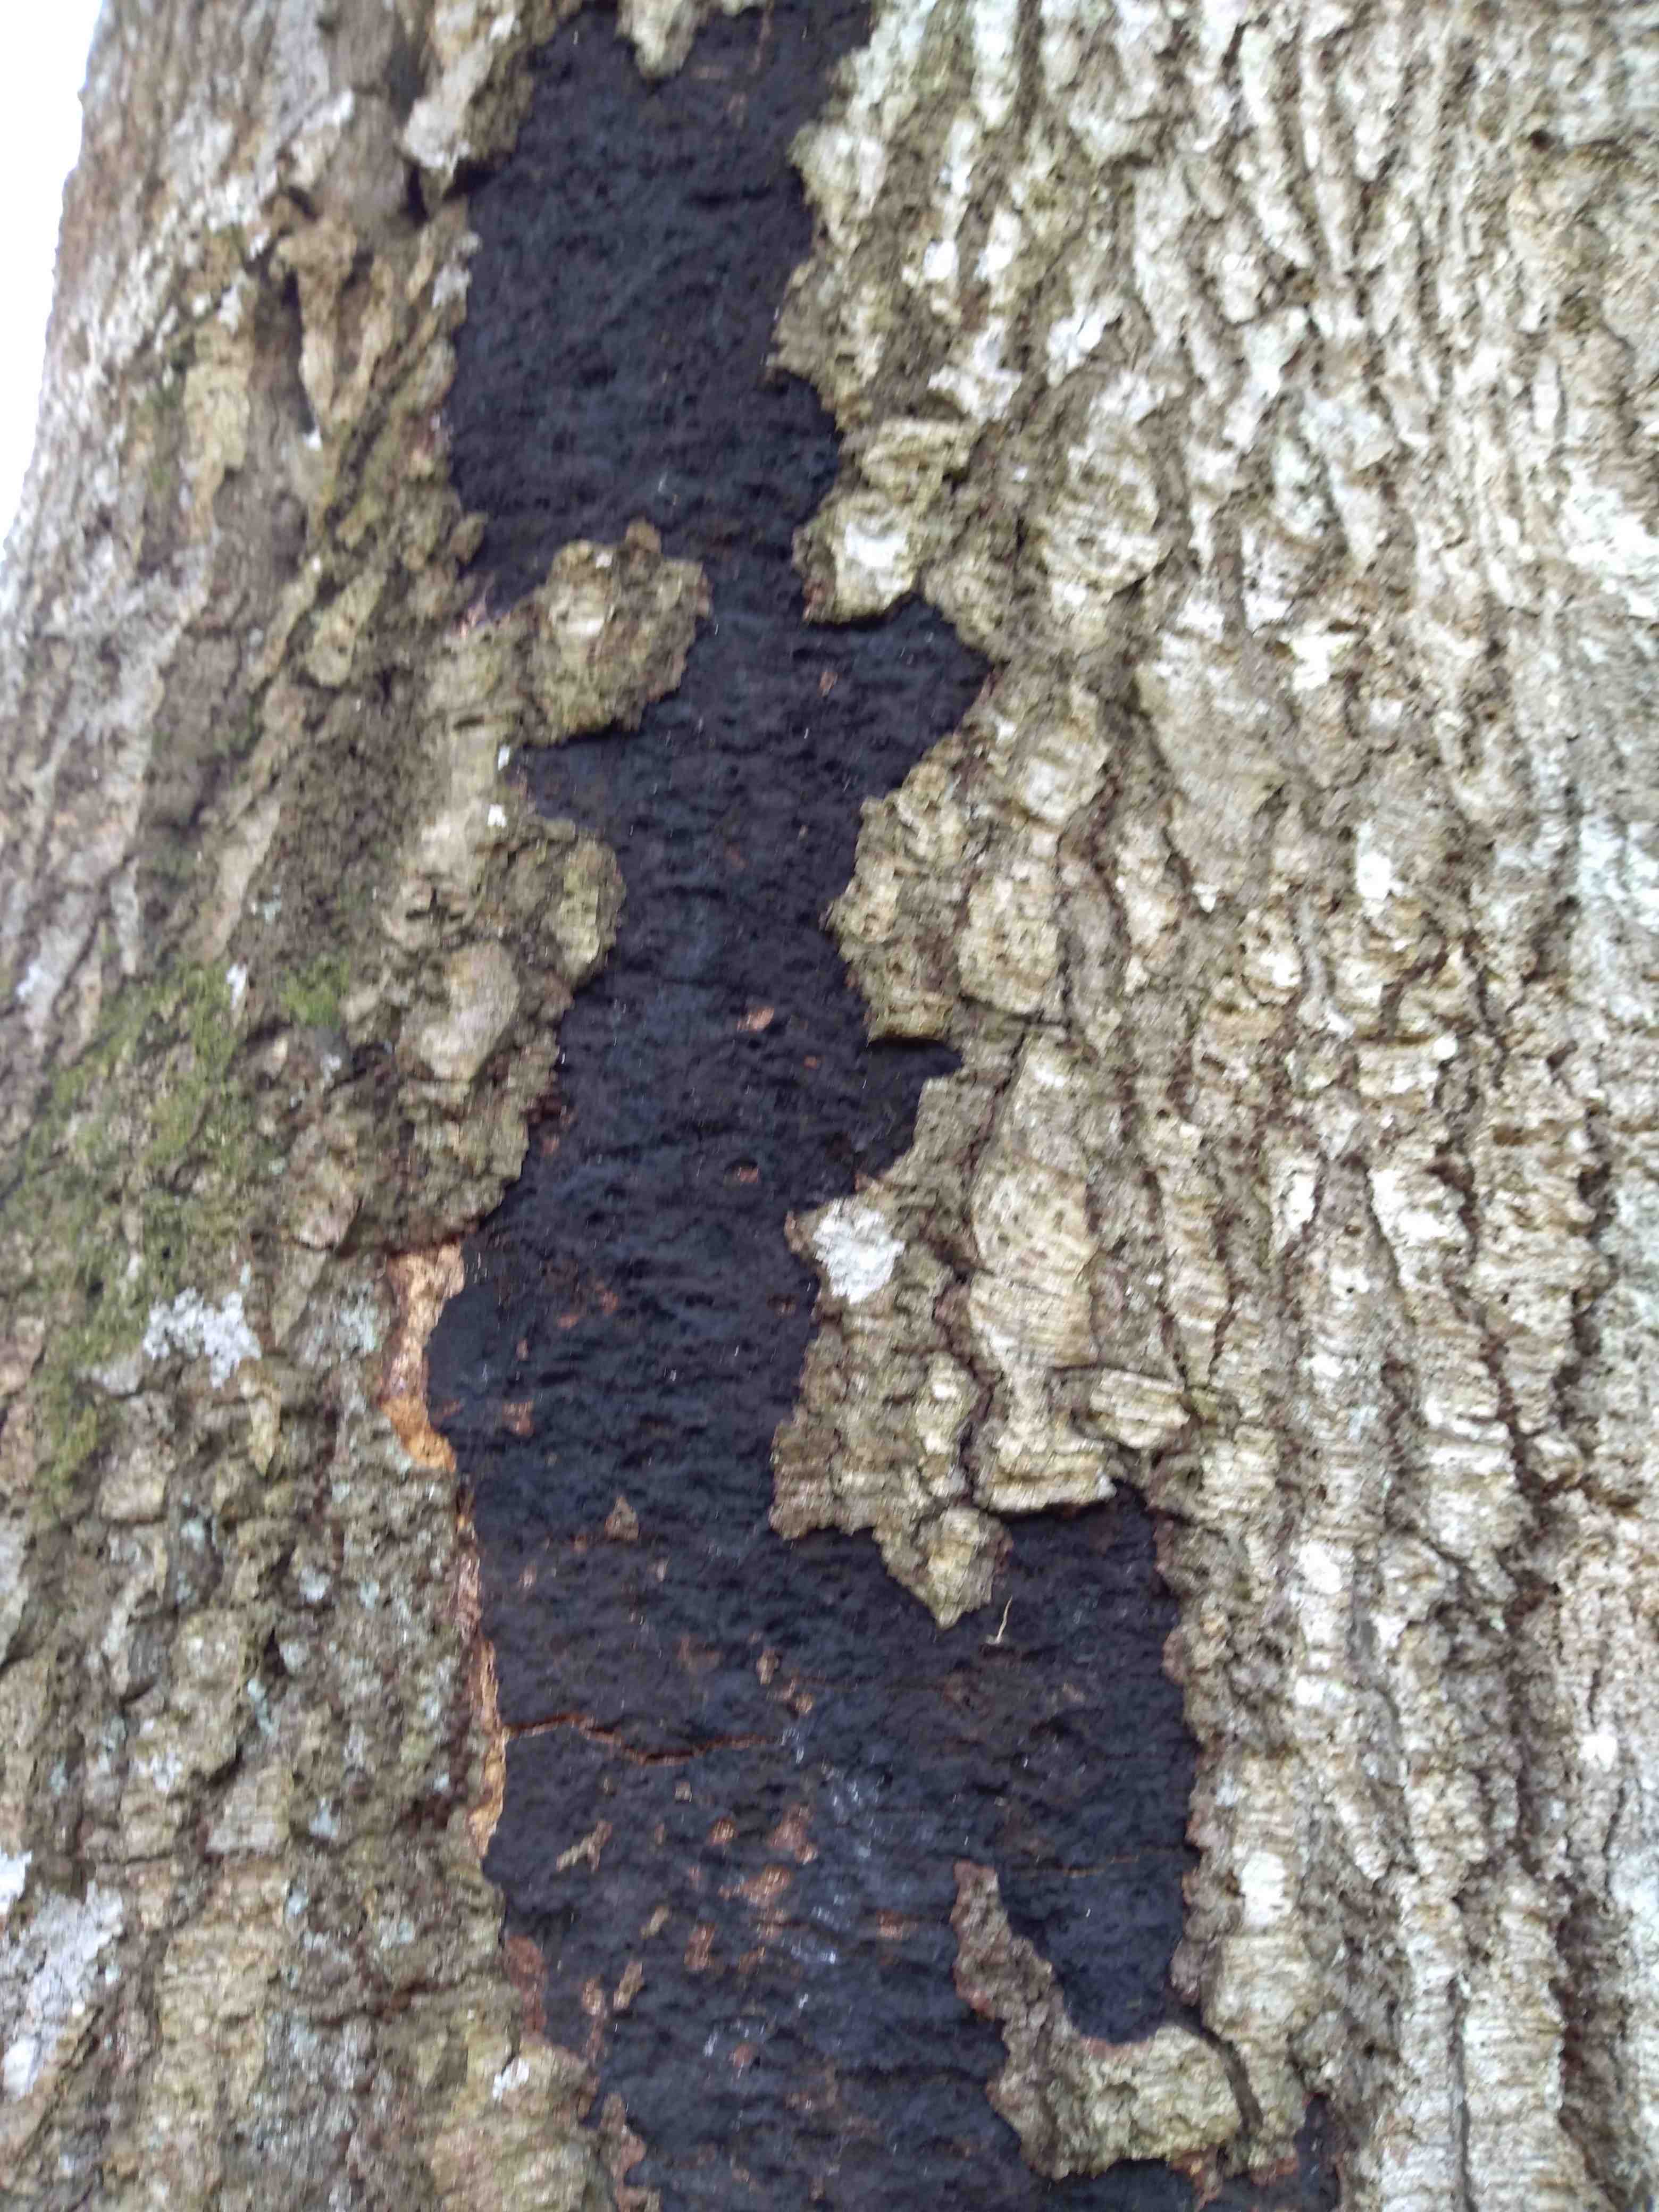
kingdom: Fungi
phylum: Ascomycota
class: Sordariomycetes
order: Xylariales
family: Diatrypaceae
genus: Eutypa
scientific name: Eutypa spinosa
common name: grov kulskorpe
